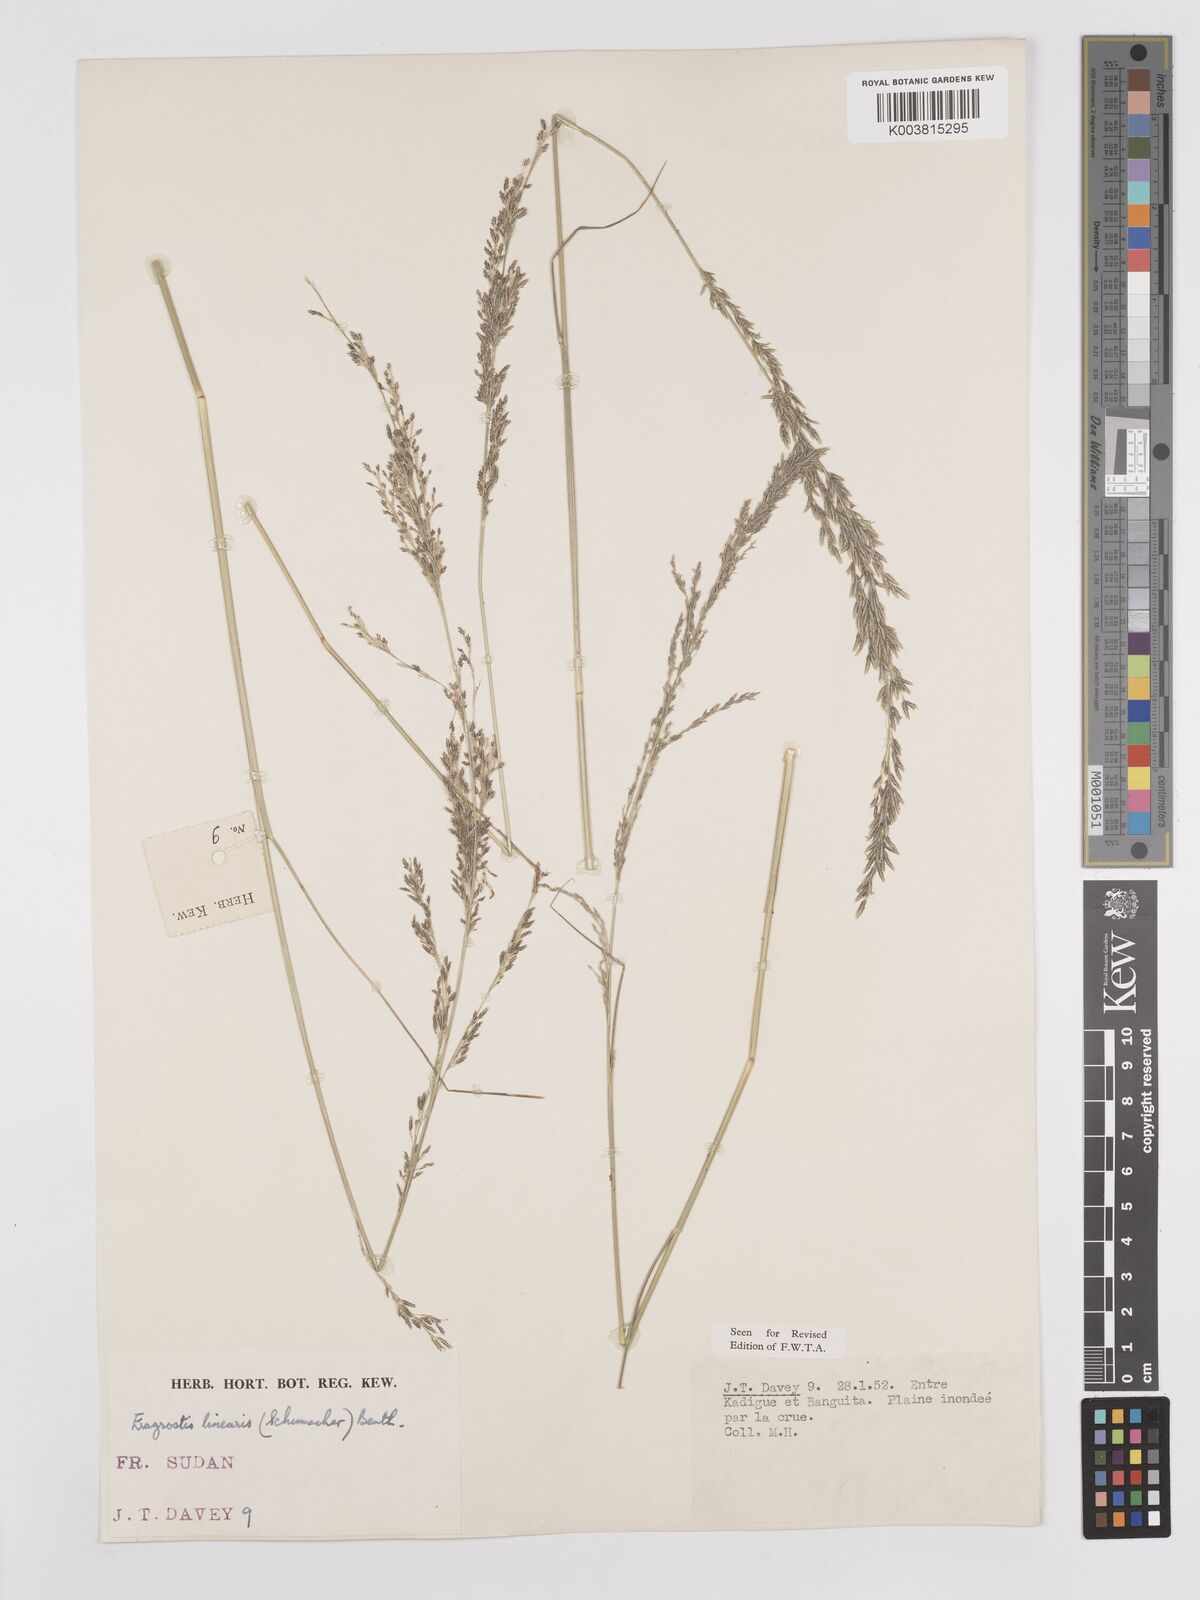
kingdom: Plantae
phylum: Tracheophyta
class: Liliopsida
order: Poales
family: Poaceae
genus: Eragrostis
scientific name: Eragrostis prolifera
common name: Dominican lovegrass
